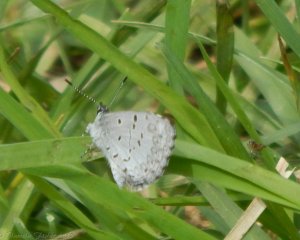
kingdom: Animalia
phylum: Arthropoda
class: Insecta
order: Lepidoptera
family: Lycaenidae
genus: Cyaniris
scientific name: Cyaniris neglecta
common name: Summer Azure
